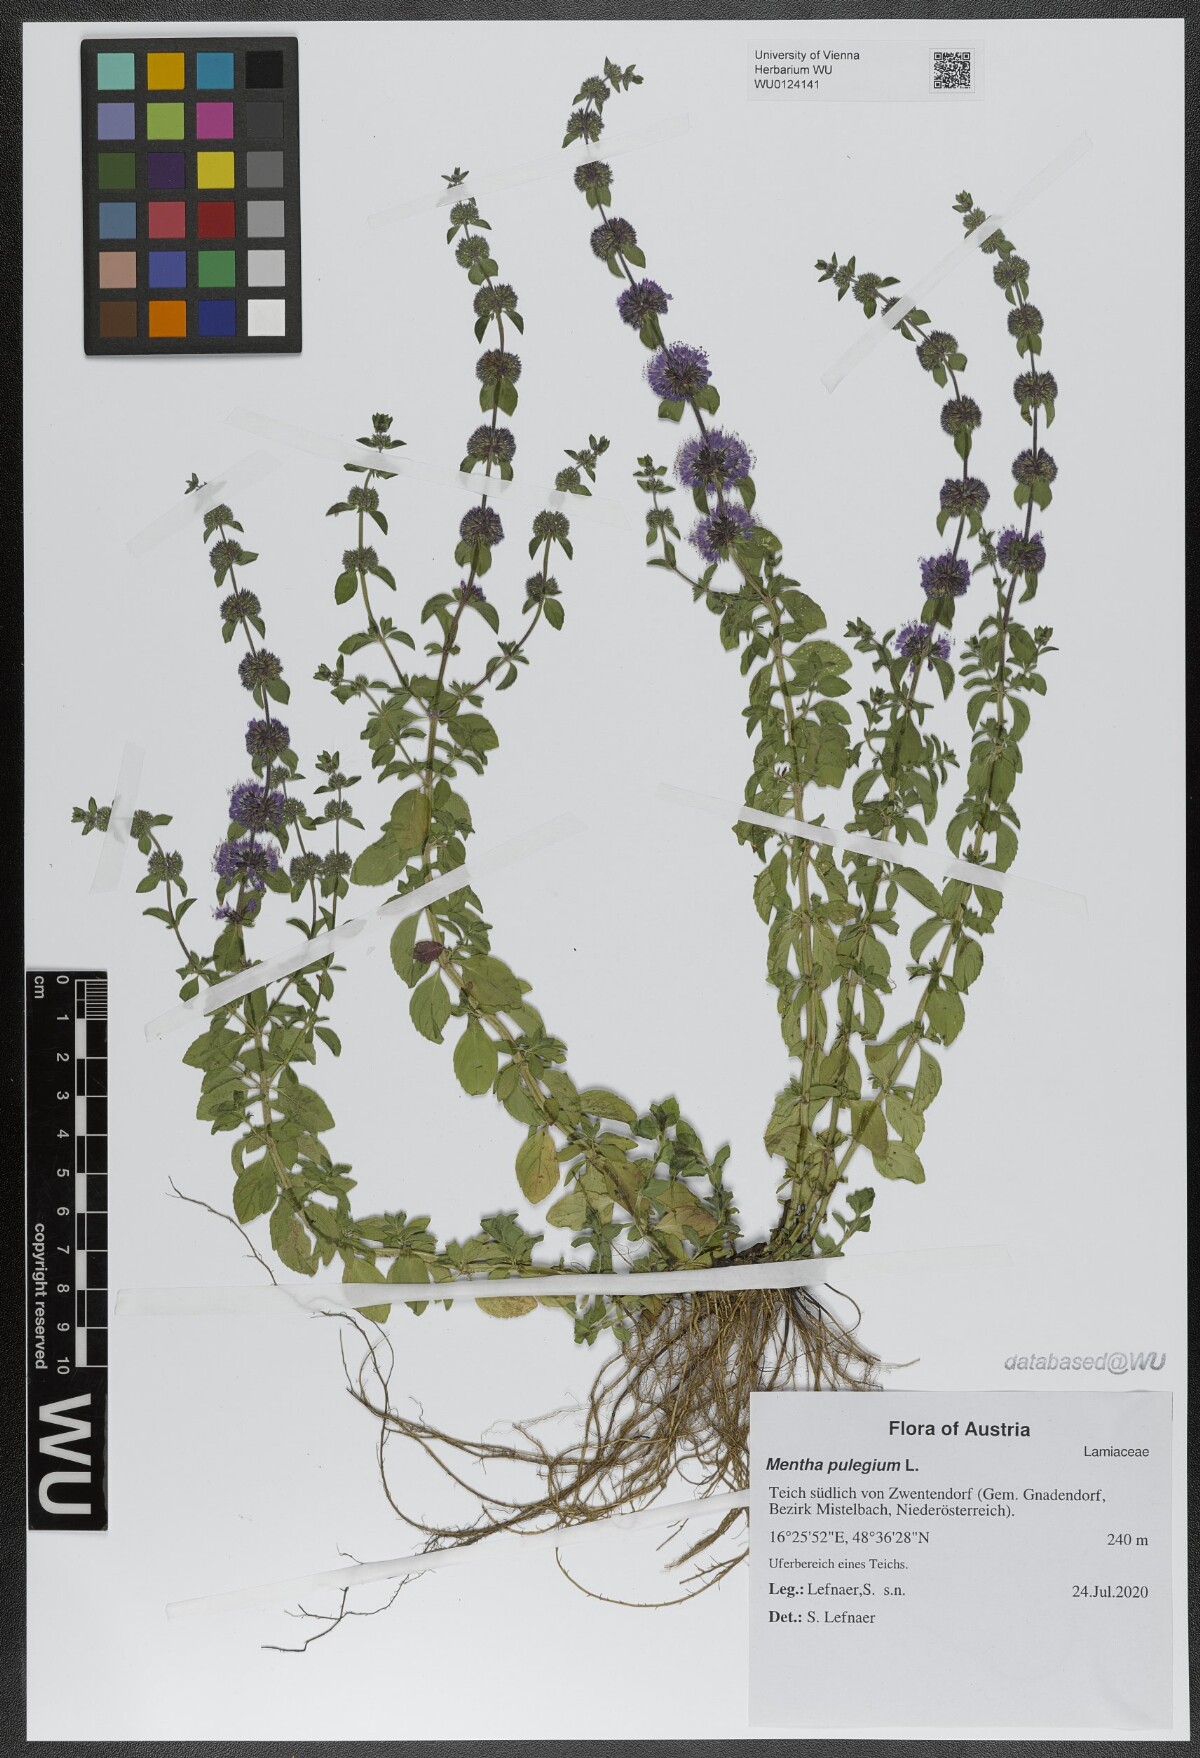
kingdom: Plantae
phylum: Tracheophyta
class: Magnoliopsida
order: Lamiales
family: Lamiaceae
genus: Mentha
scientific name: Mentha pulegium
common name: Pennyroyal
